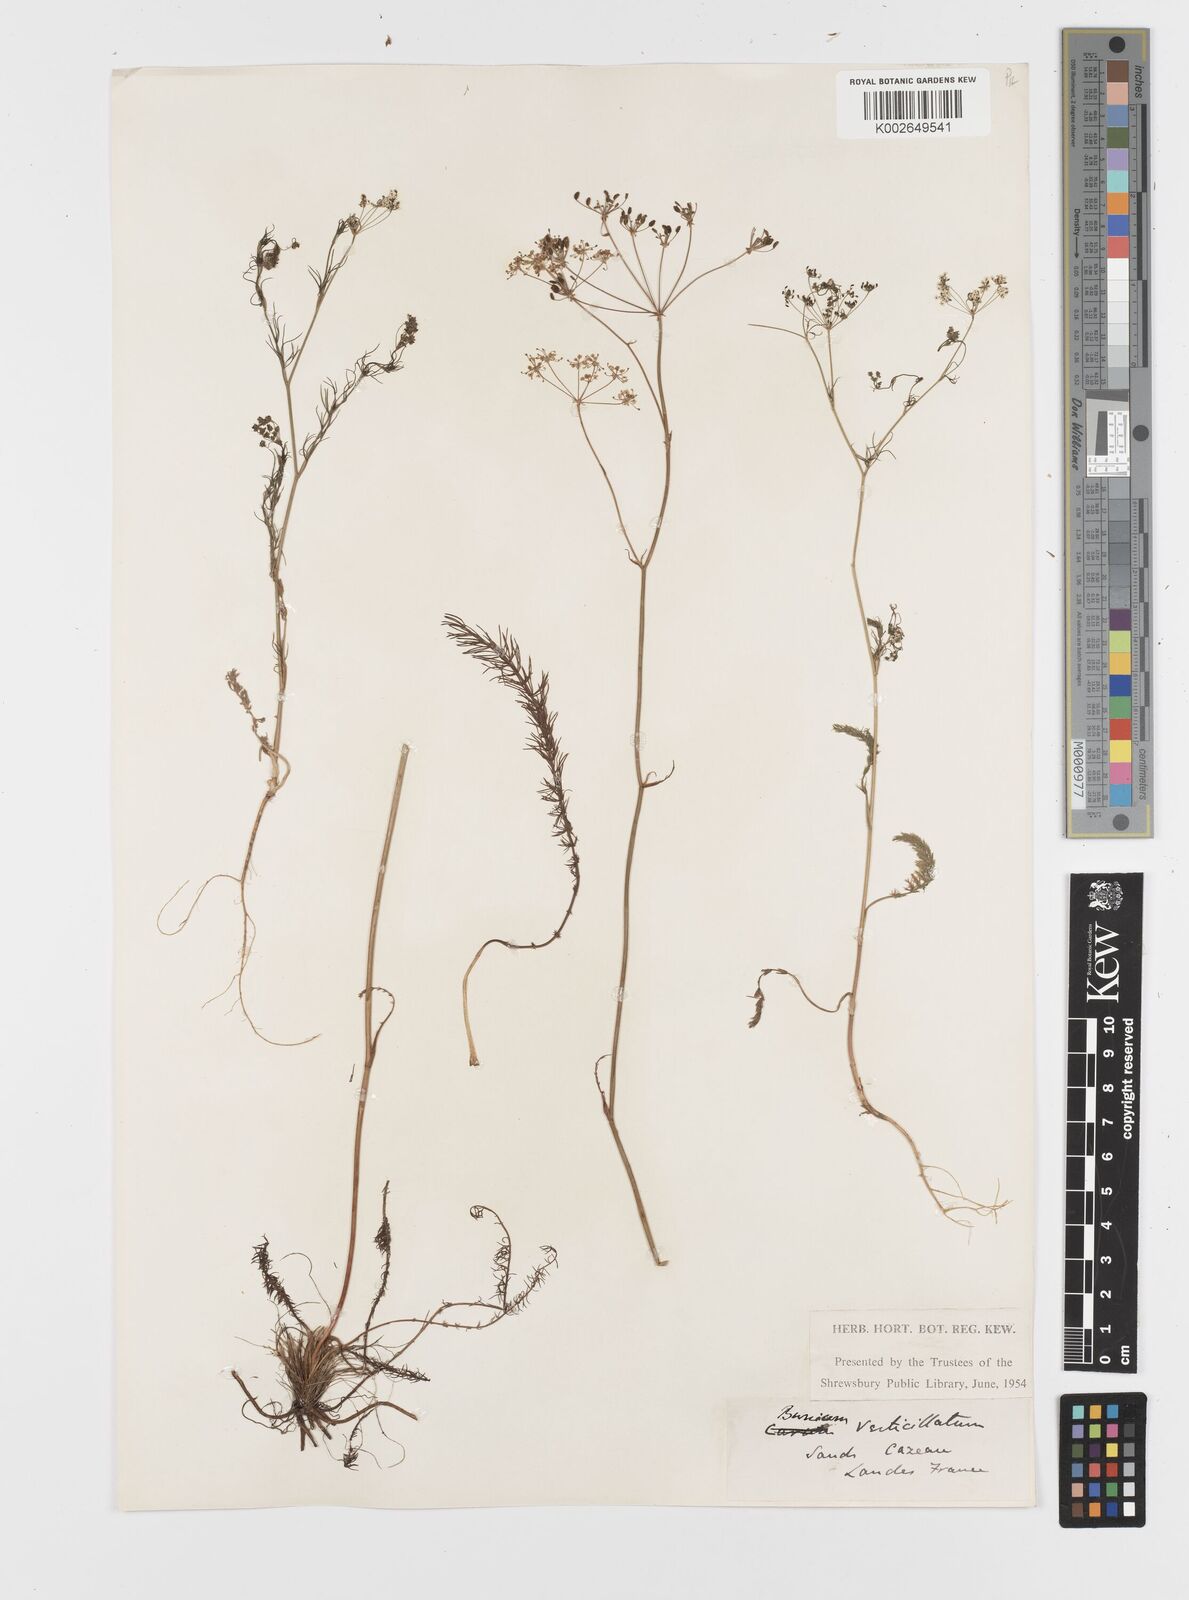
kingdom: Plantae
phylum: Tracheophyta
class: Magnoliopsida
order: Apiales
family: Apiaceae
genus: Trocdaris
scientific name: Trocdaris verticillatum
